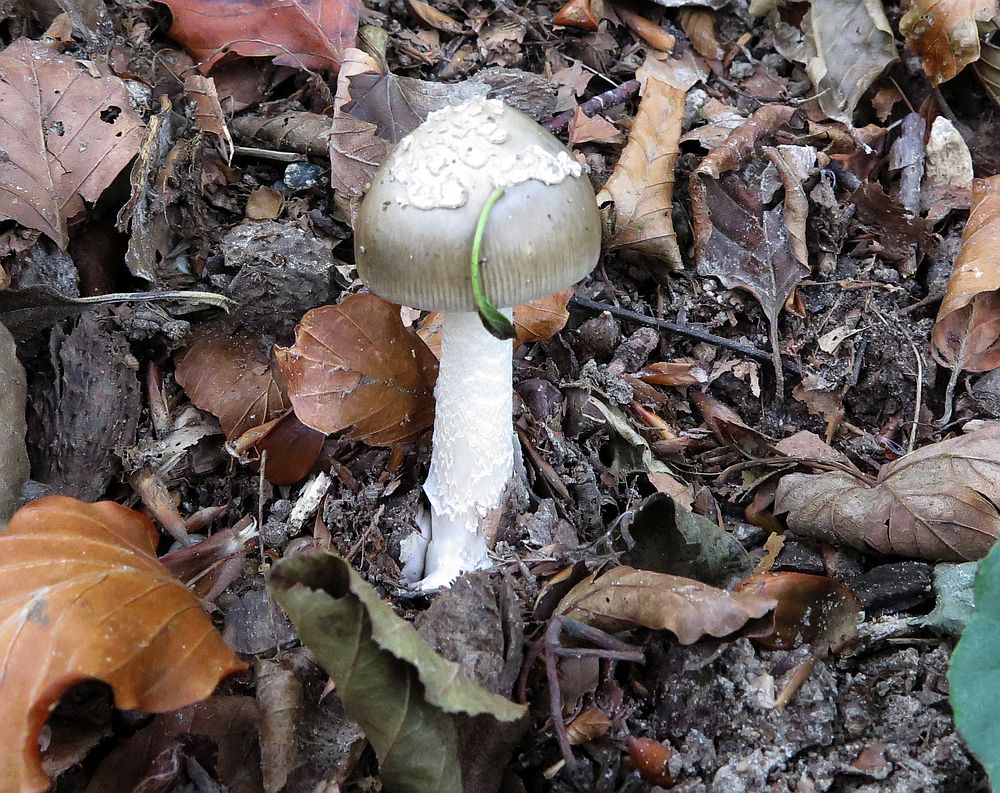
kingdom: Fungi
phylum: Basidiomycota
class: Agaricomycetes
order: Agaricales
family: Amanitaceae
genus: Amanita
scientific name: Amanita submembranacea
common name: gråspættet kam-fluesvamp
